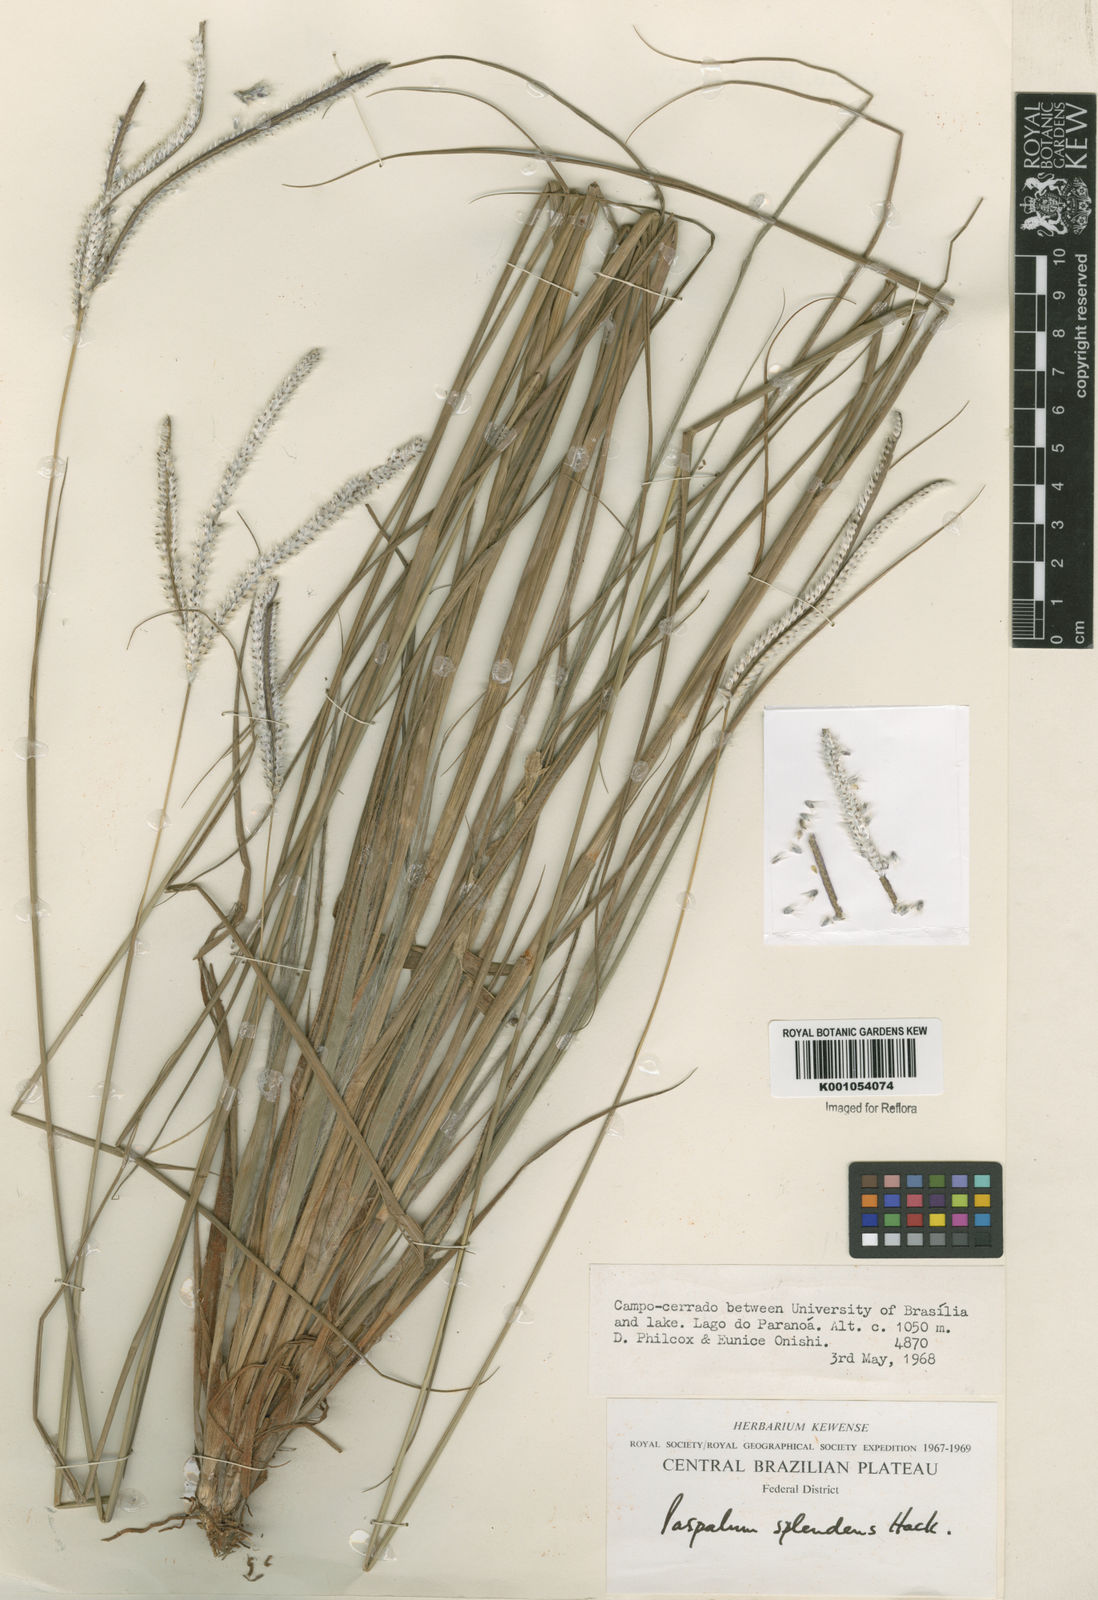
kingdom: Plantae
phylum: Tracheophyta
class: Liliopsida
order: Poales
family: Poaceae
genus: Paspalum
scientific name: Paspalum eucomum
